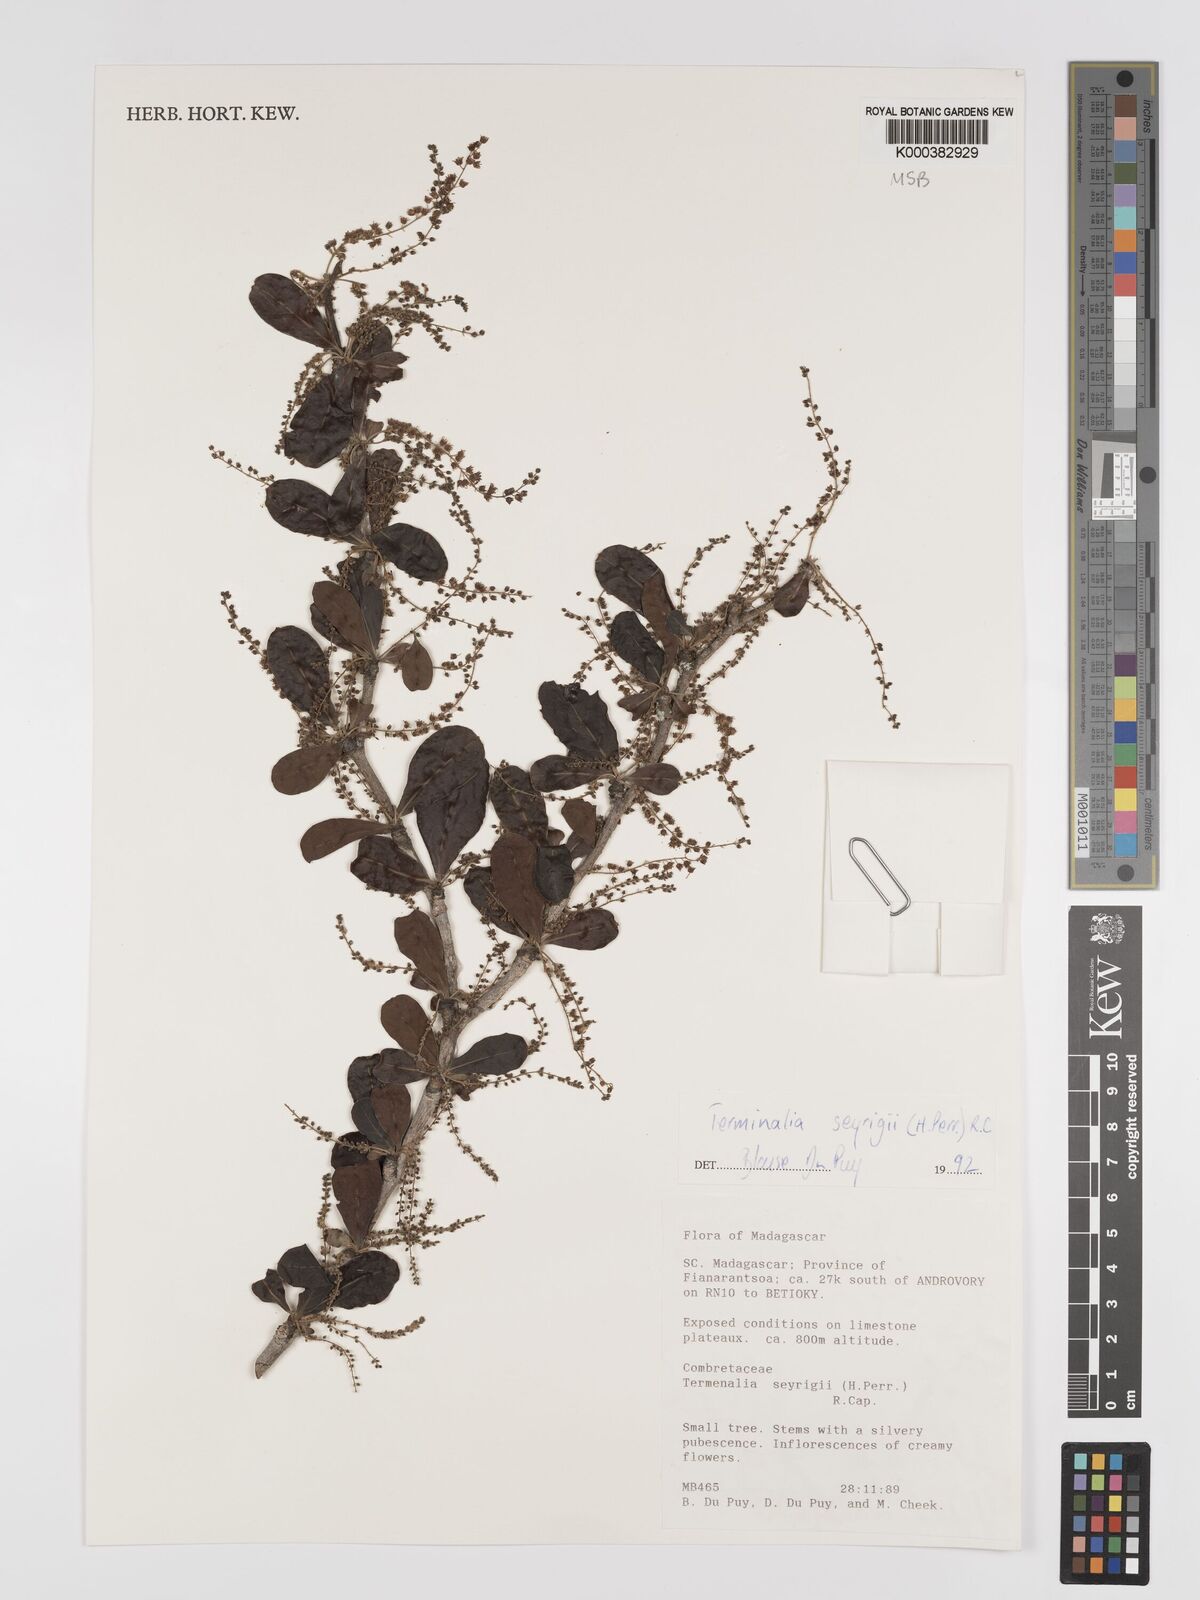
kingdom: Plantae
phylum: Tracheophyta
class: Magnoliopsida
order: Myrtales
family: Combretaceae
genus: Terminalia
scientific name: Terminalia seyrigii
